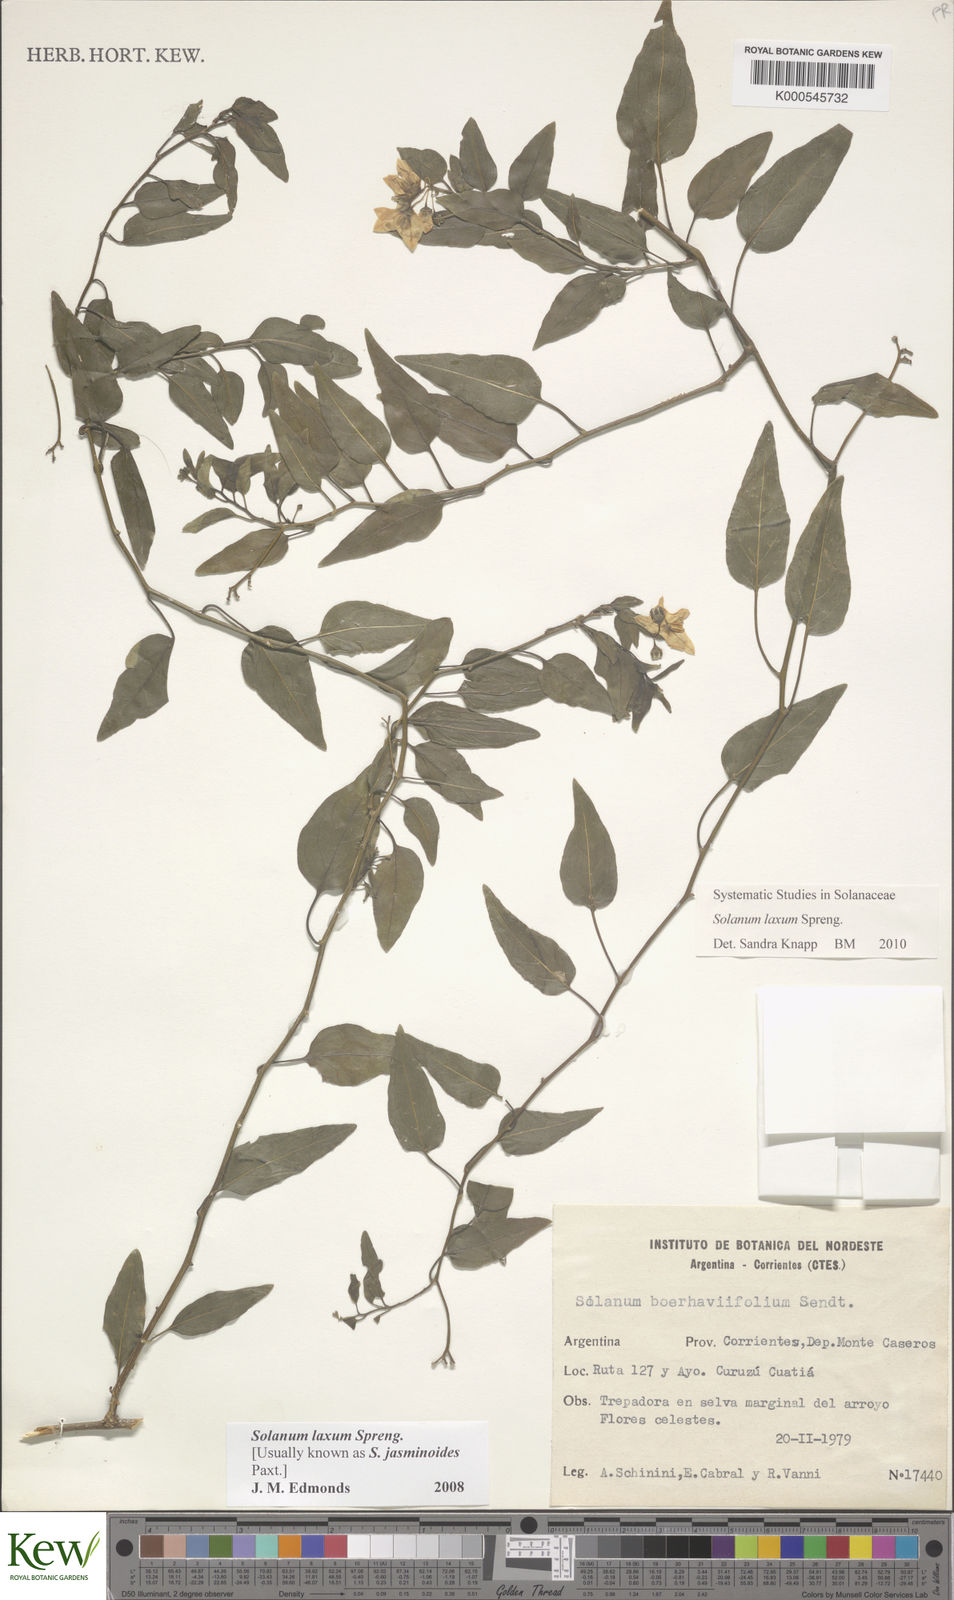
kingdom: Plantae
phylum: Tracheophyta
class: Magnoliopsida
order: Solanales
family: Solanaceae
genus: Solanum
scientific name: Solanum laxum
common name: Nightshade
